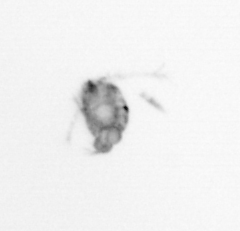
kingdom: Animalia
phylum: Arthropoda
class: Copepoda
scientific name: Copepoda
